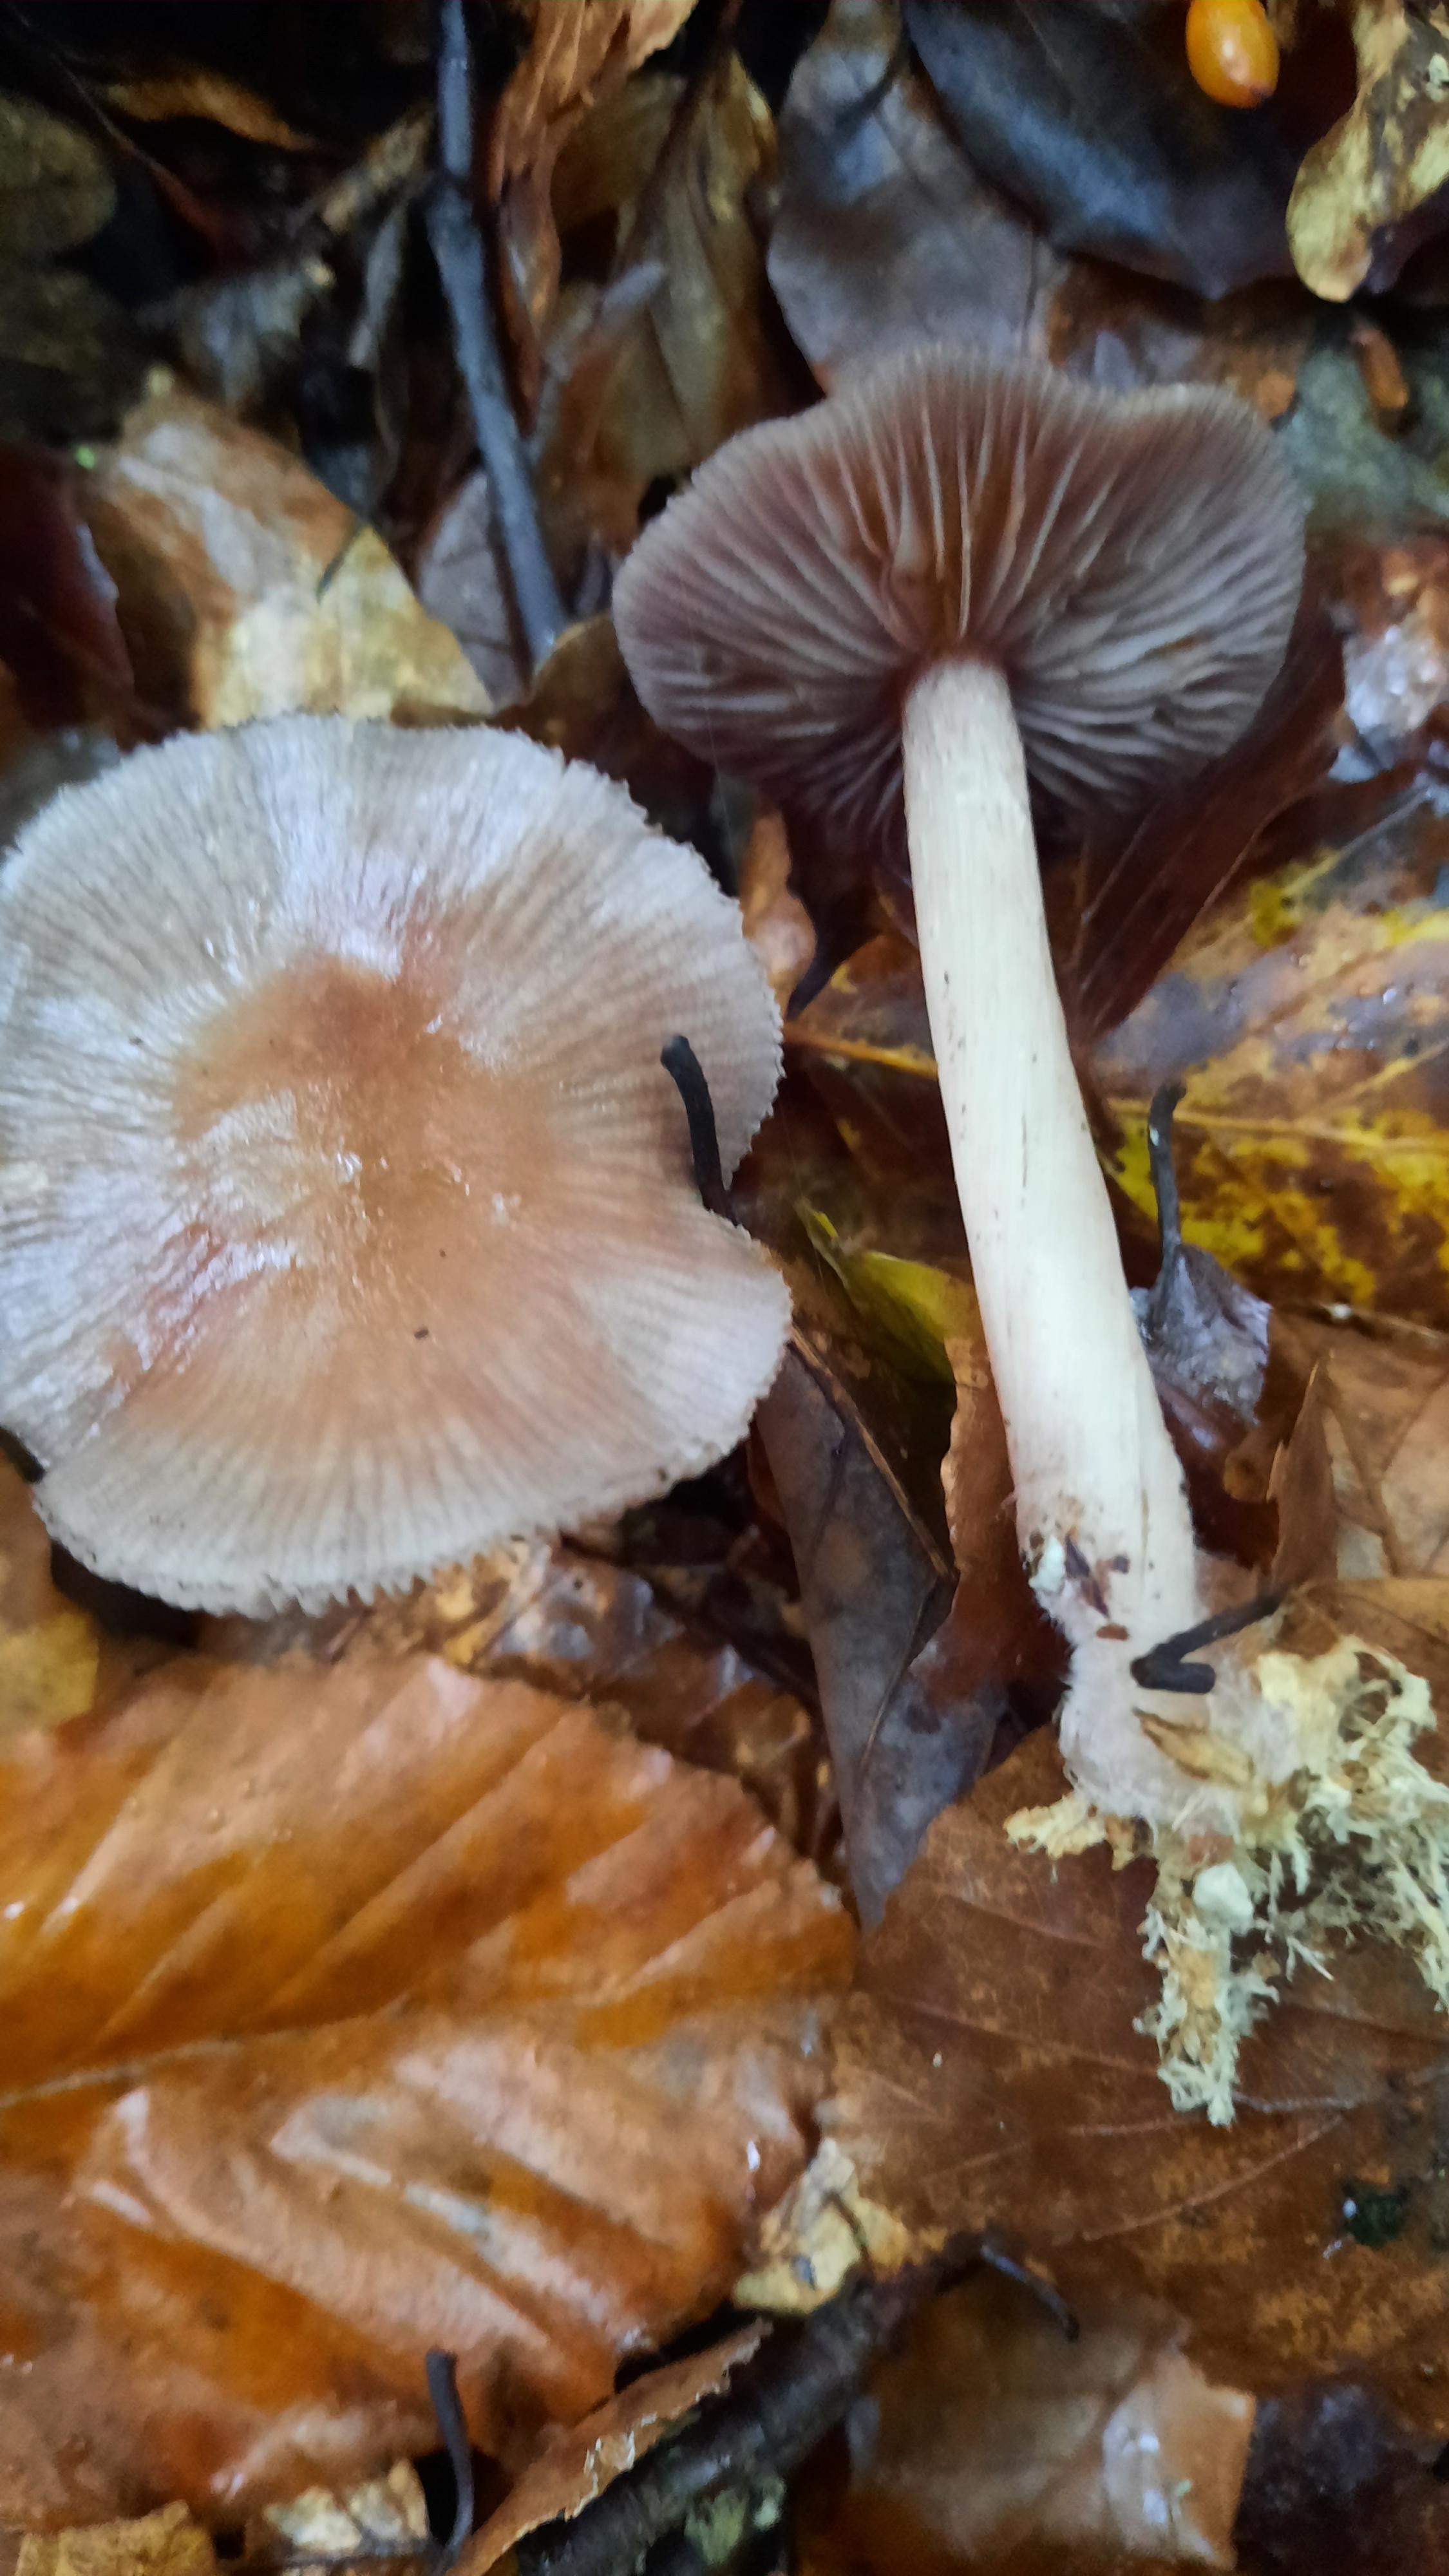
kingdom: Fungi
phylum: Basidiomycota
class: Agaricomycetes
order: Agaricales
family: Mycenaceae
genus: Mycena
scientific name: Mycena pelianthina
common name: mørkbladet huesvamp
